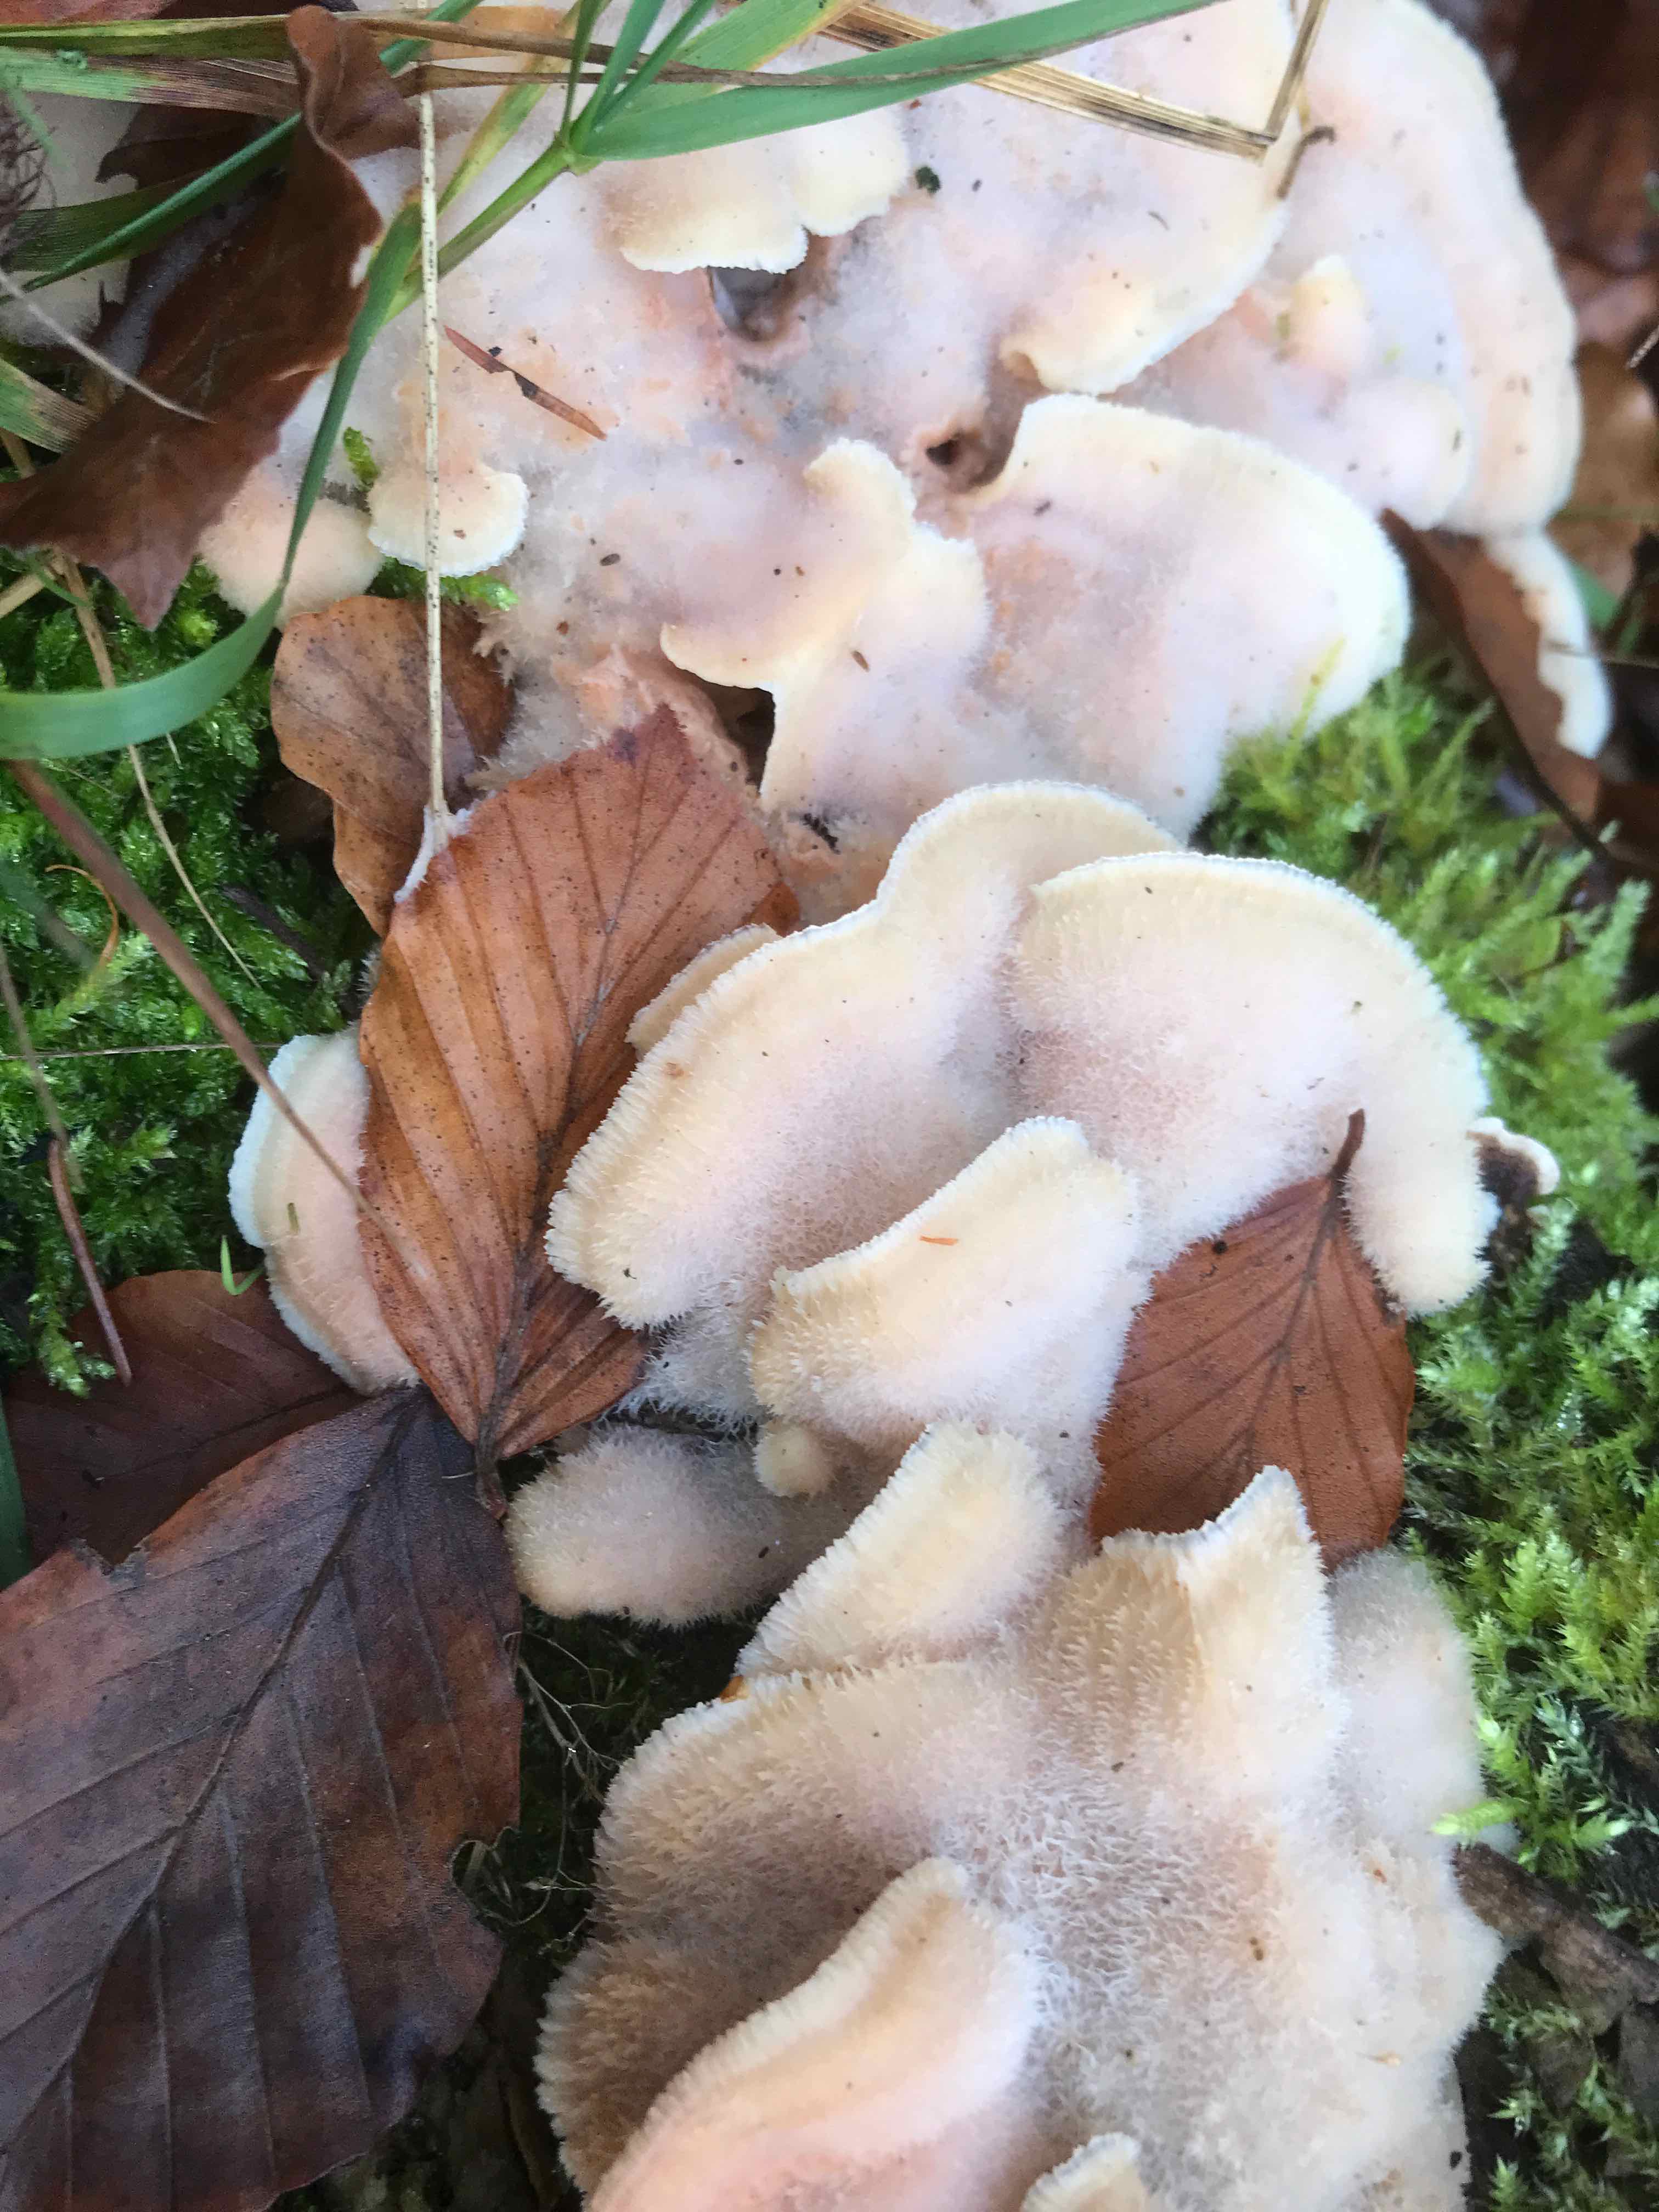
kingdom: Fungi
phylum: Basidiomycota
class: Agaricomycetes
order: Polyporales
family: Meruliaceae
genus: Phlebia
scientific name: Phlebia tremellosa
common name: bævrende åresvamp
